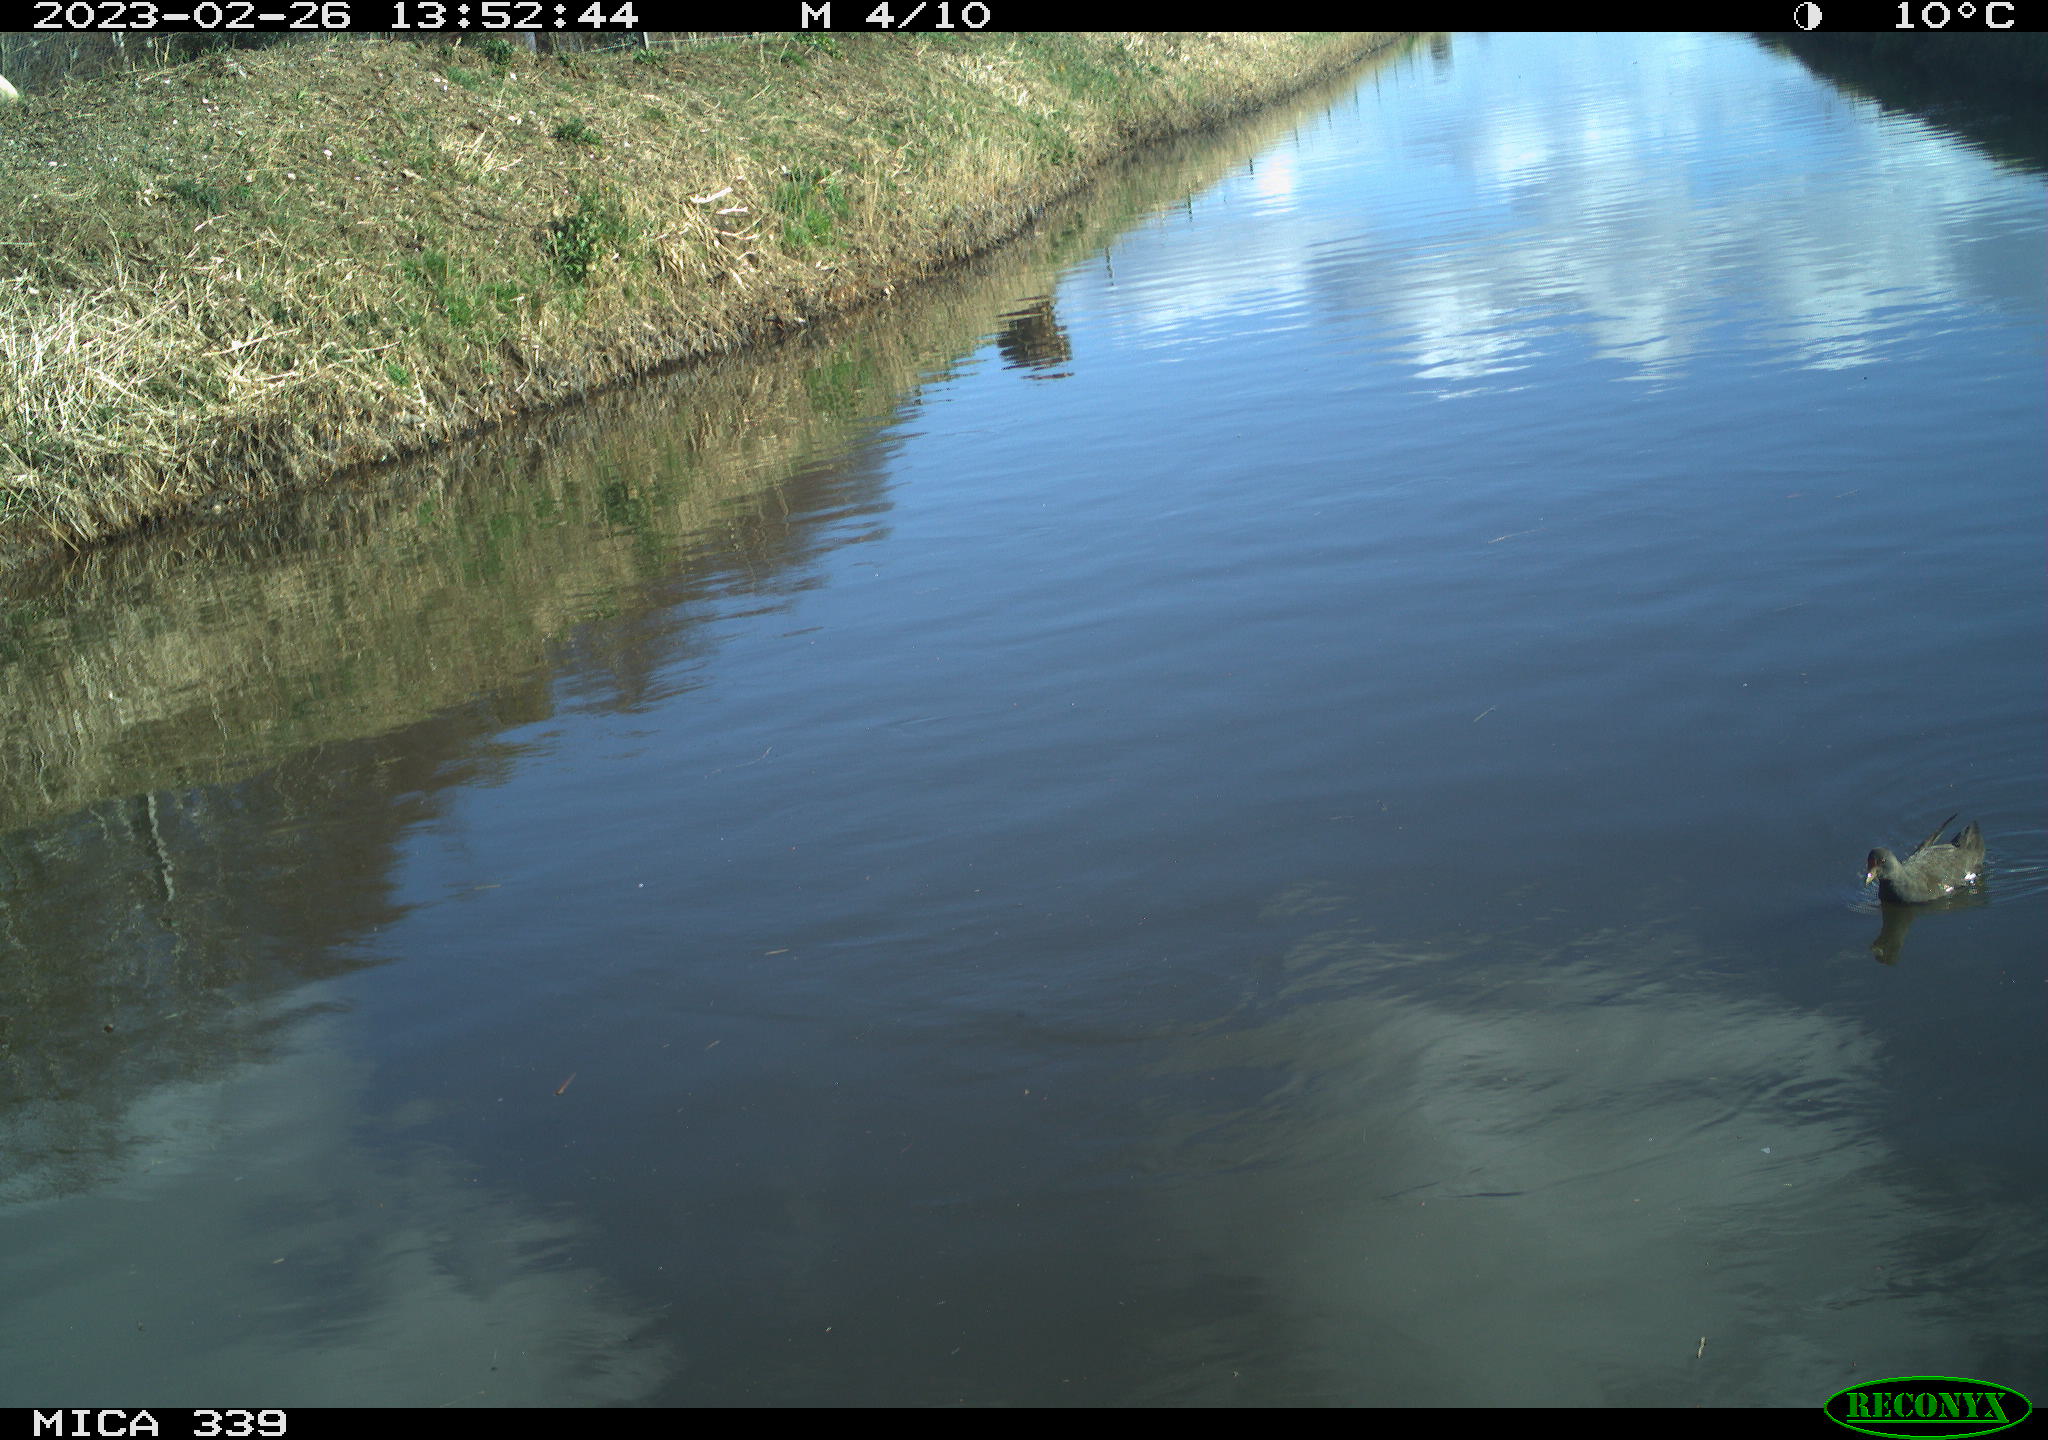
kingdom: Animalia
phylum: Chordata
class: Aves
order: Gruiformes
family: Rallidae
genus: Gallinula
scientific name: Gallinula chloropus
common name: Common moorhen
